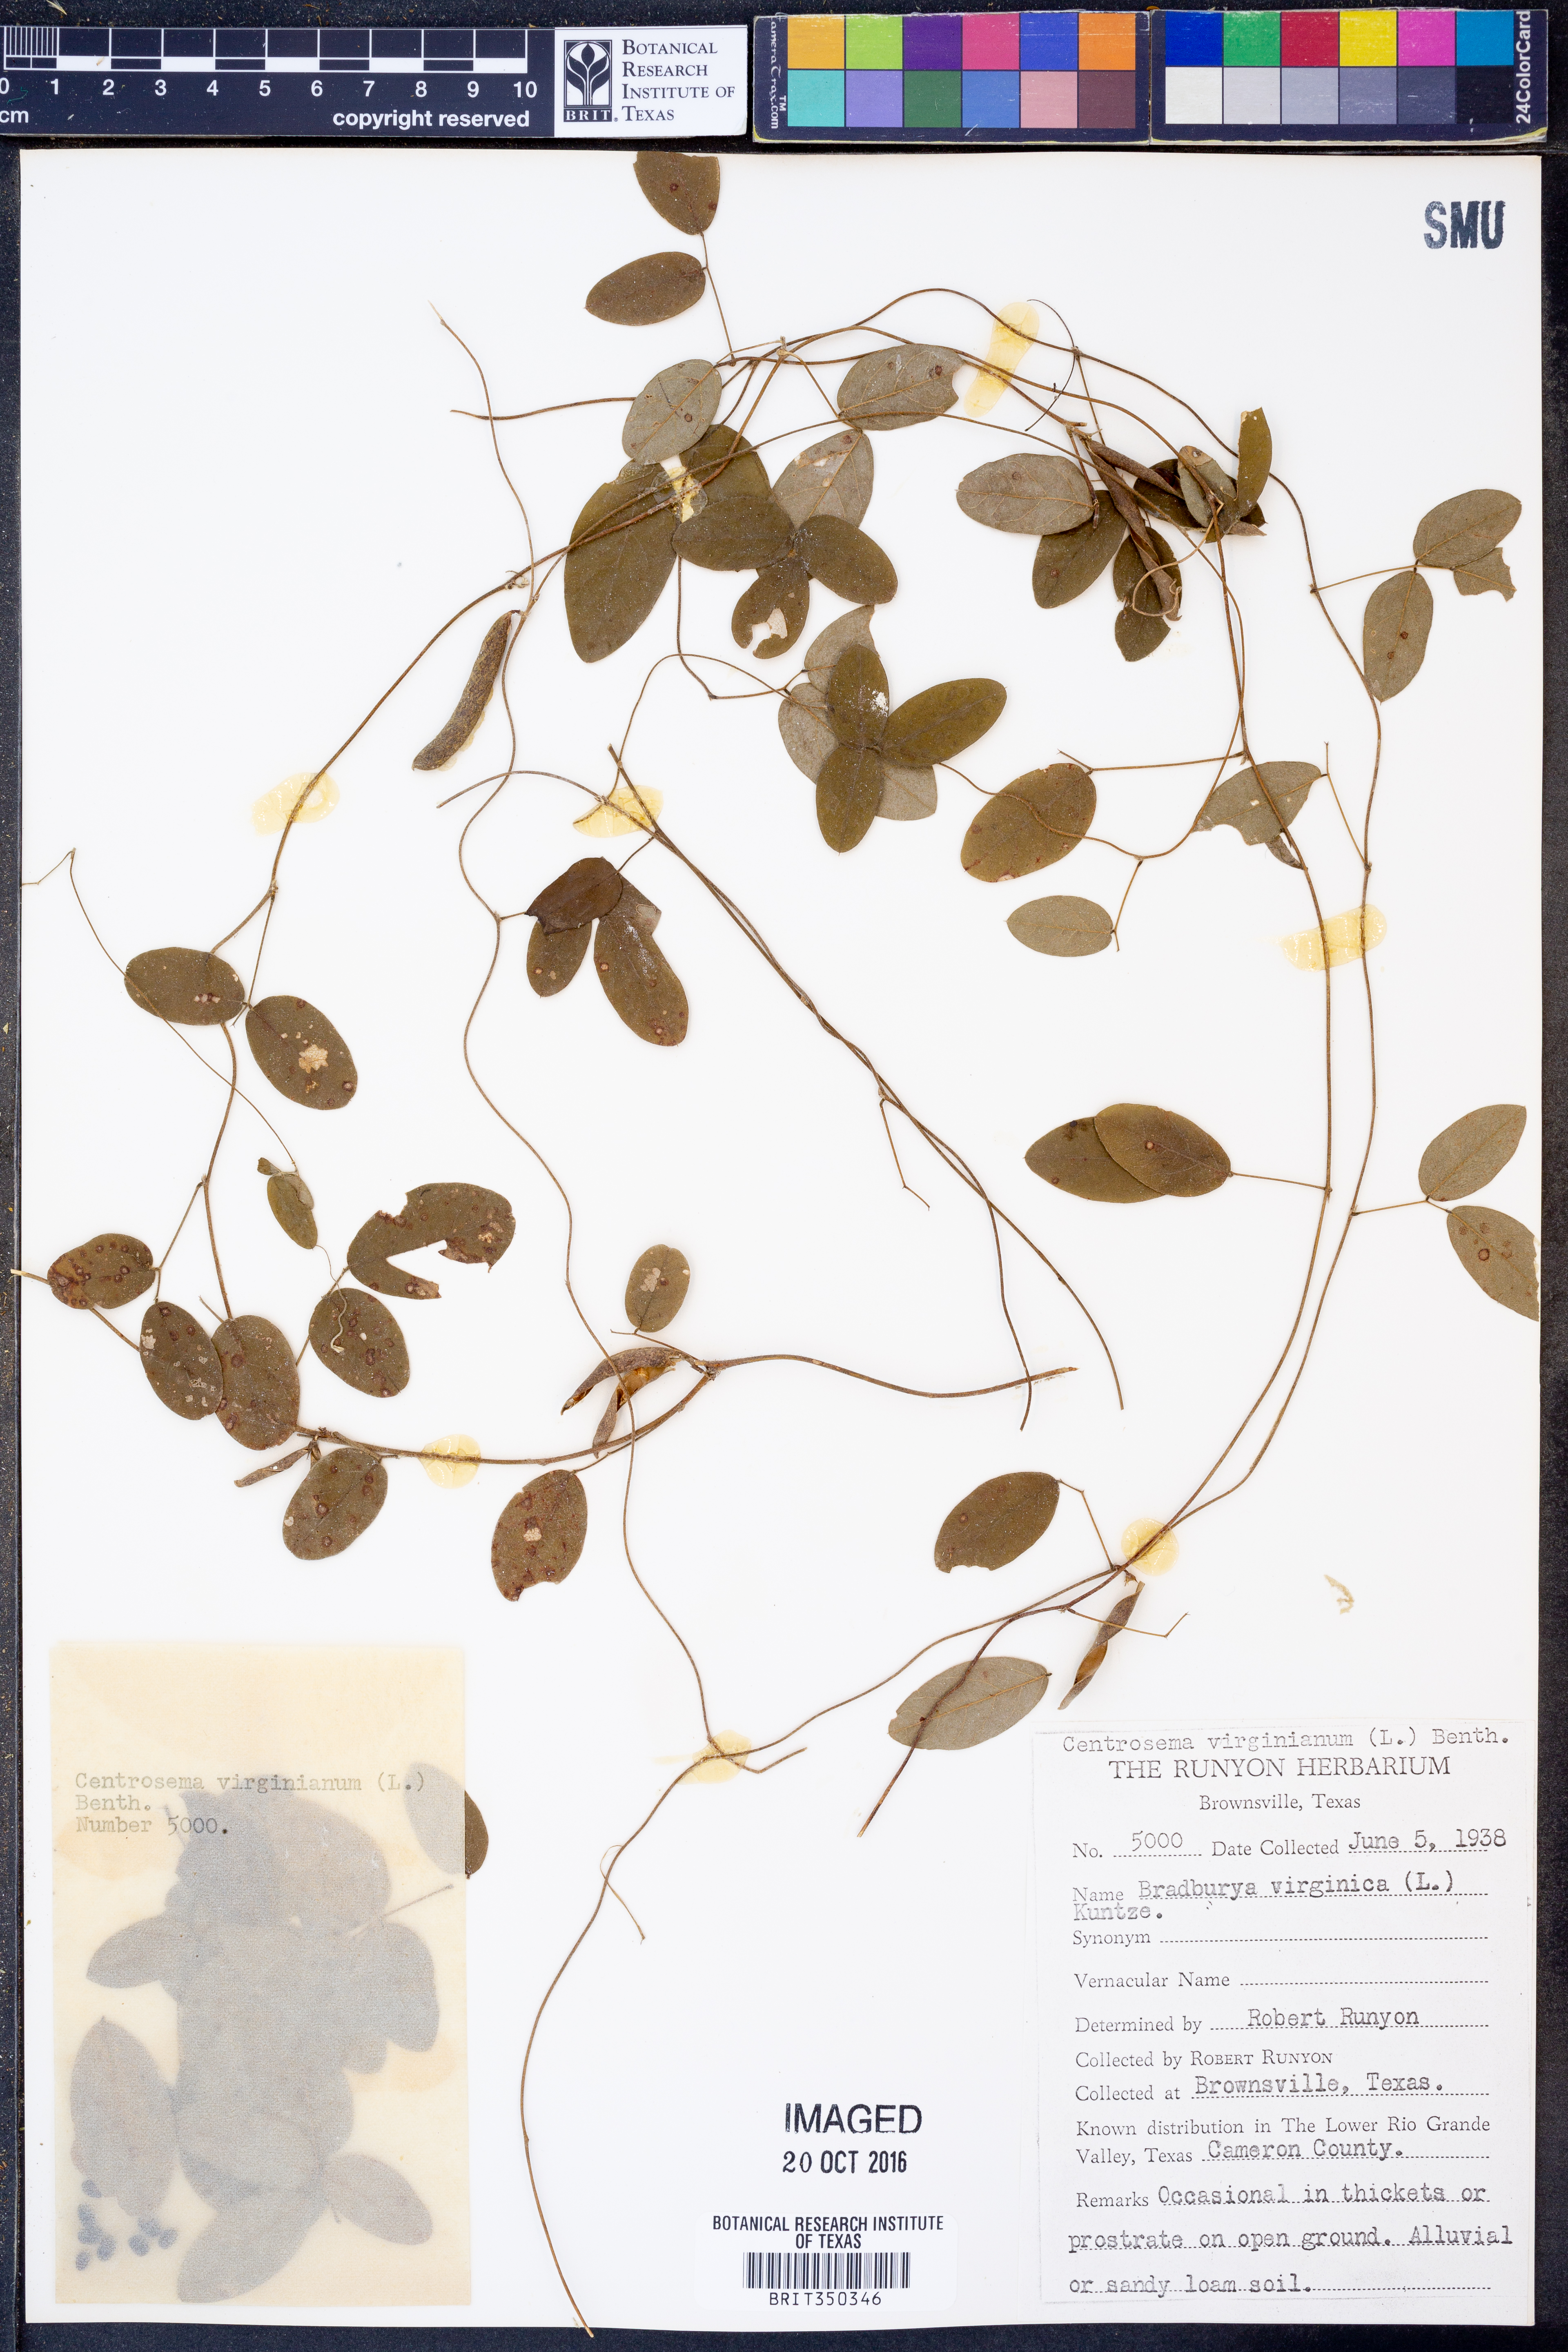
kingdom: Plantae
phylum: Tracheophyta
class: Magnoliopsida
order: Fabales
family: Fabaceae
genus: Centrosema
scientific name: Centrosema virginianum
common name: Butterfly-pea
